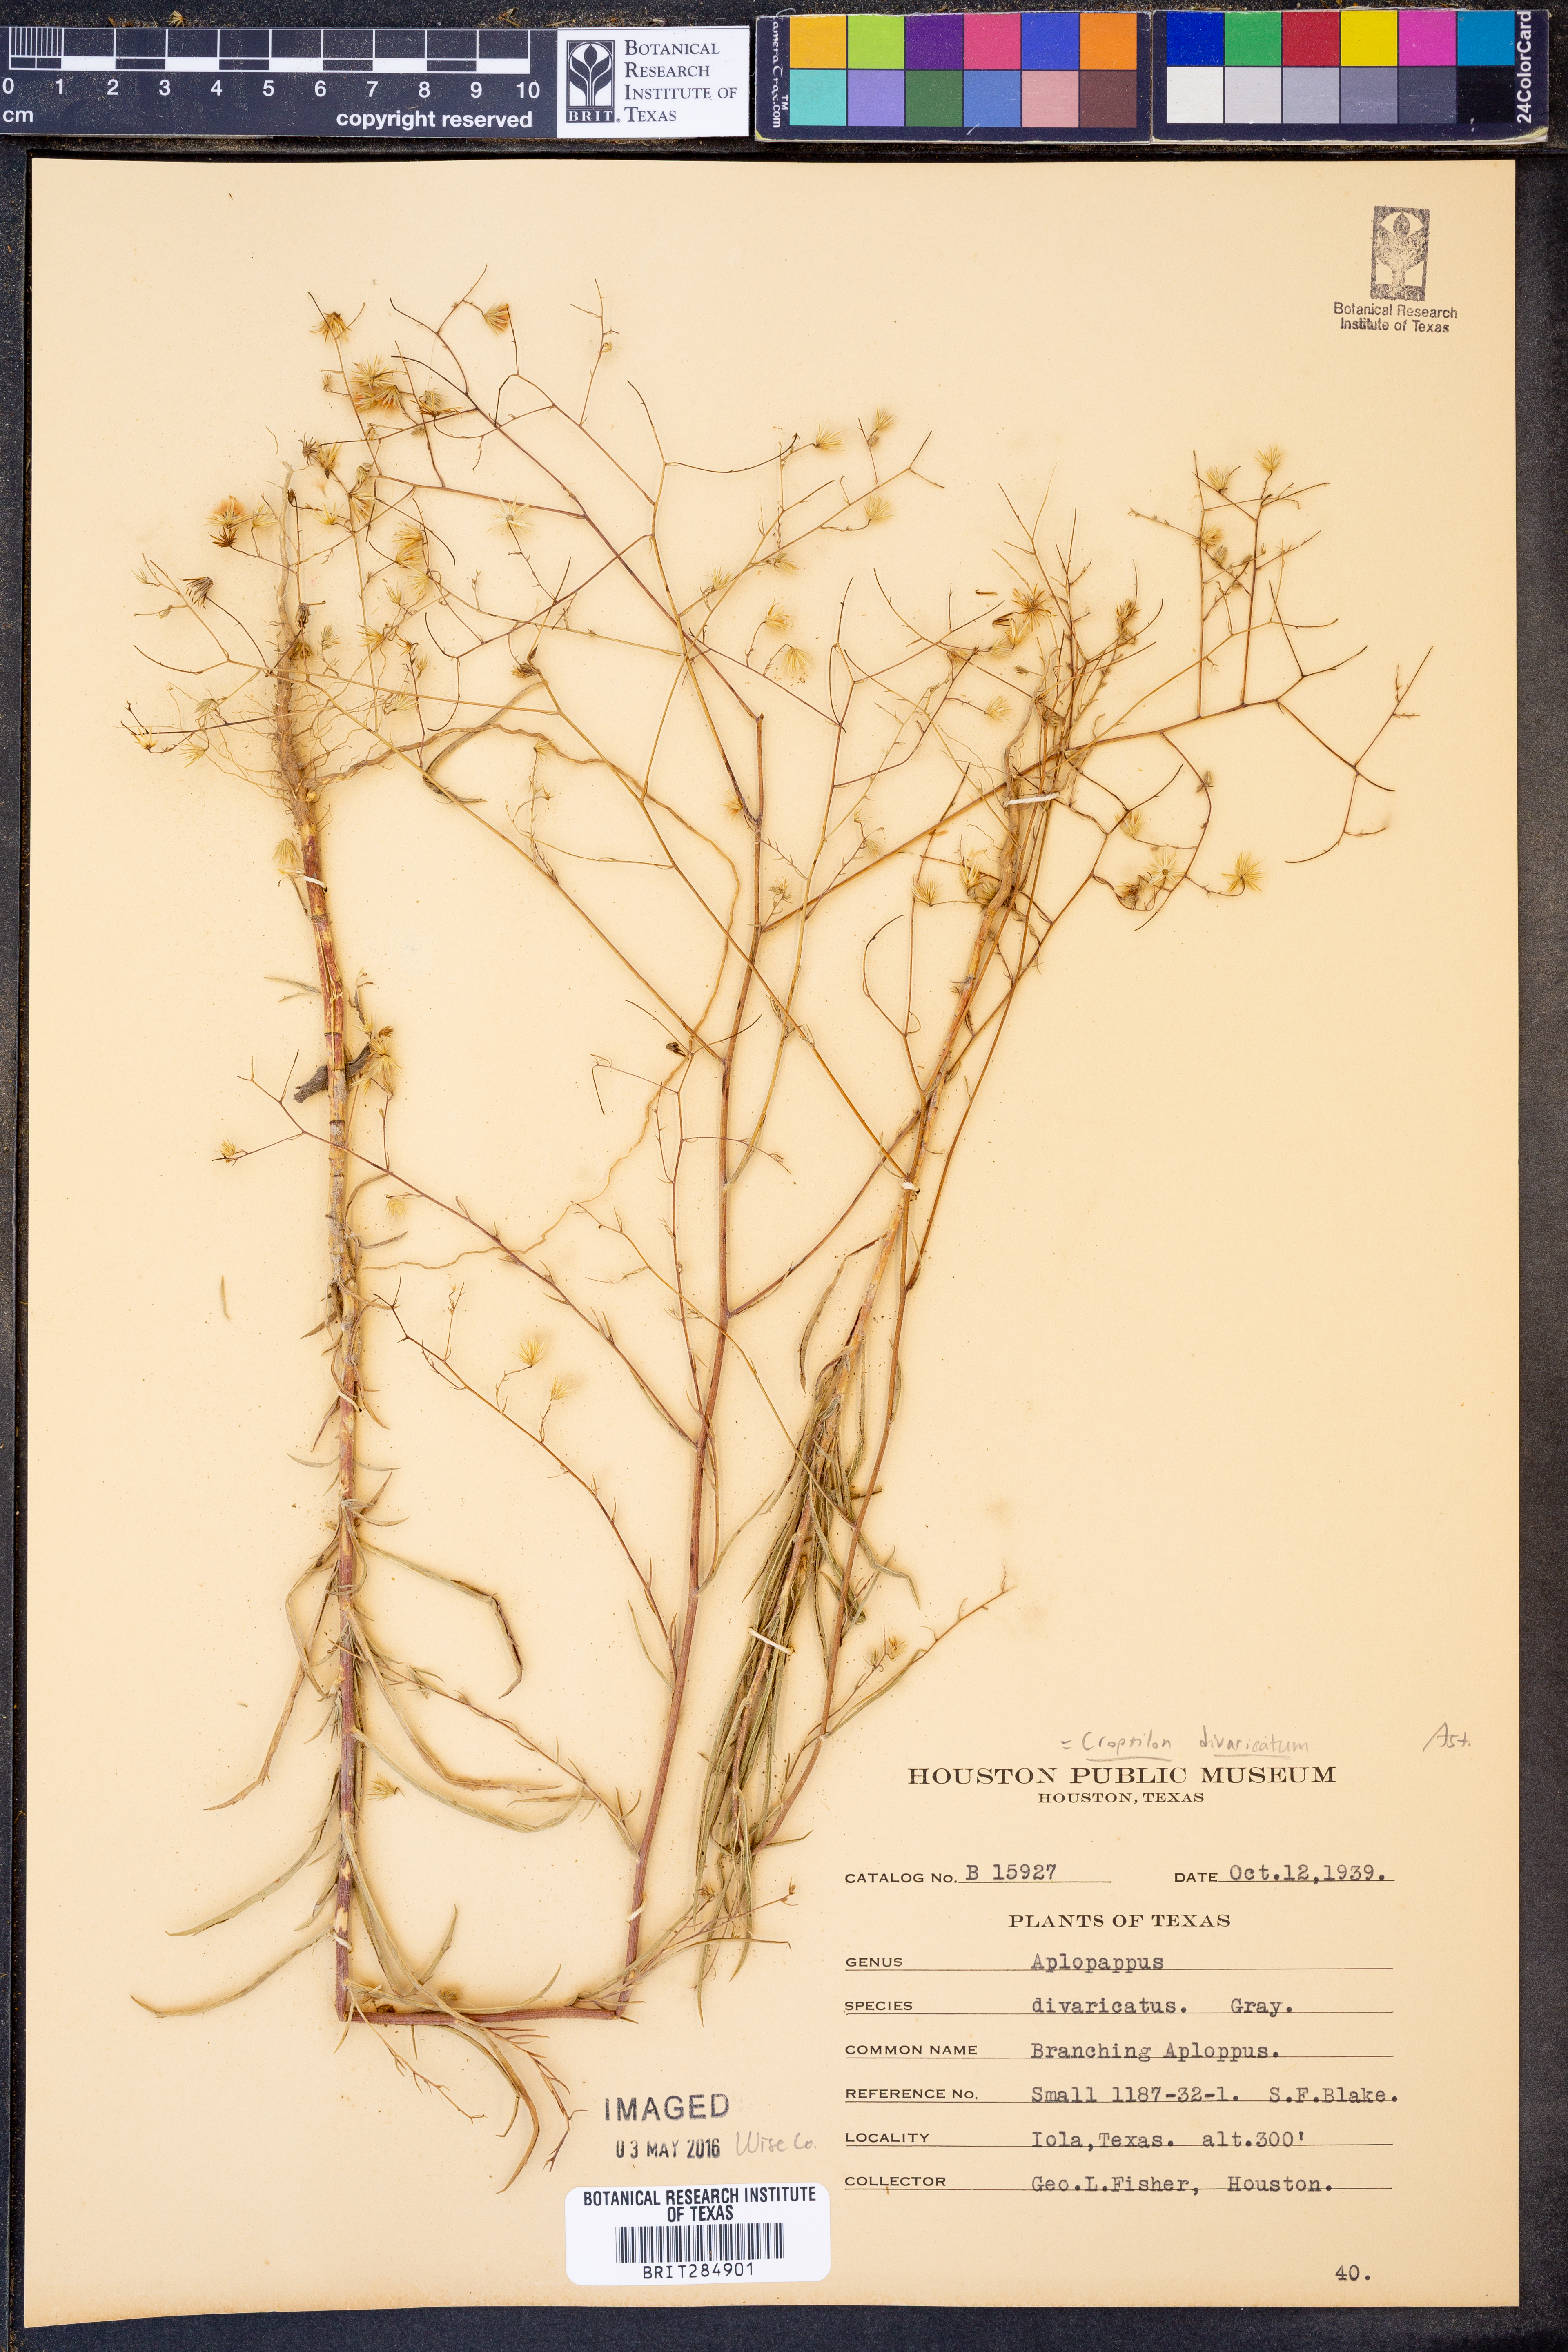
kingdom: Plantae
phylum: Tracheophyta
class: Magnoliopsida
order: Asterales
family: Asteraceae
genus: Croptilon
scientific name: Croptilon divaricatum
